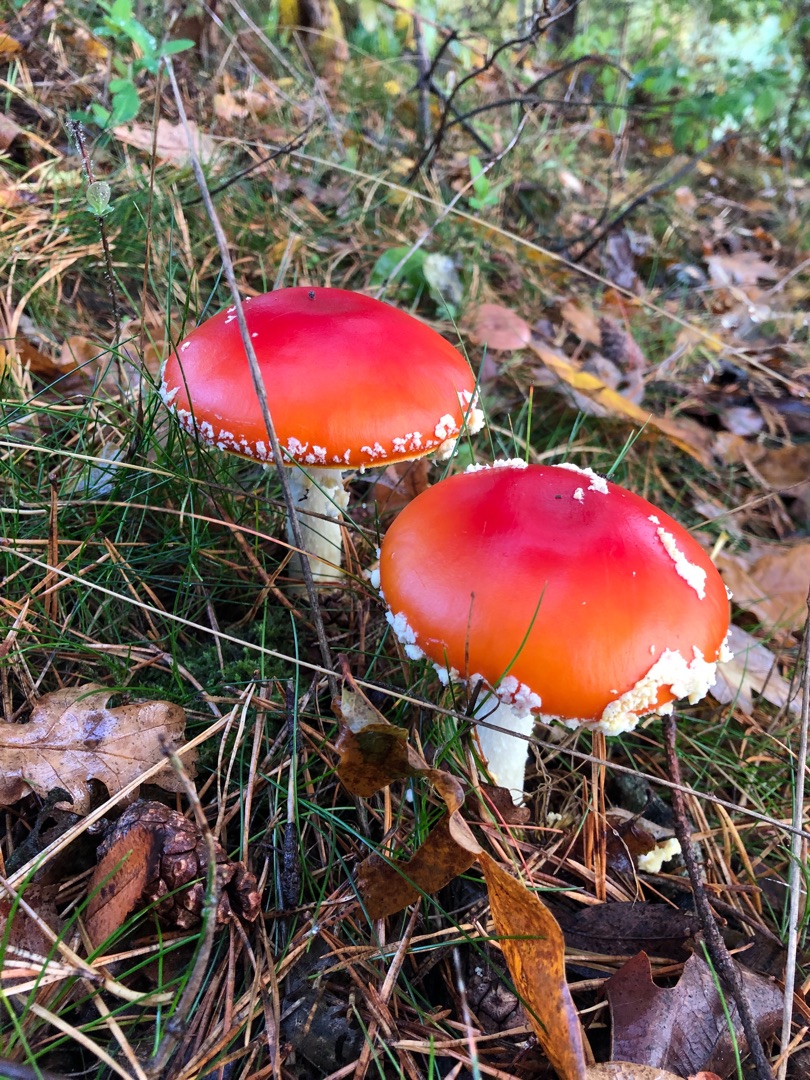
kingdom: Fungi
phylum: Basidiomycota
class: Agaricomycetes
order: Agaricales
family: Amanitaceae
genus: Amanita
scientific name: Amanita muscaria
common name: Rød fluesvamp
